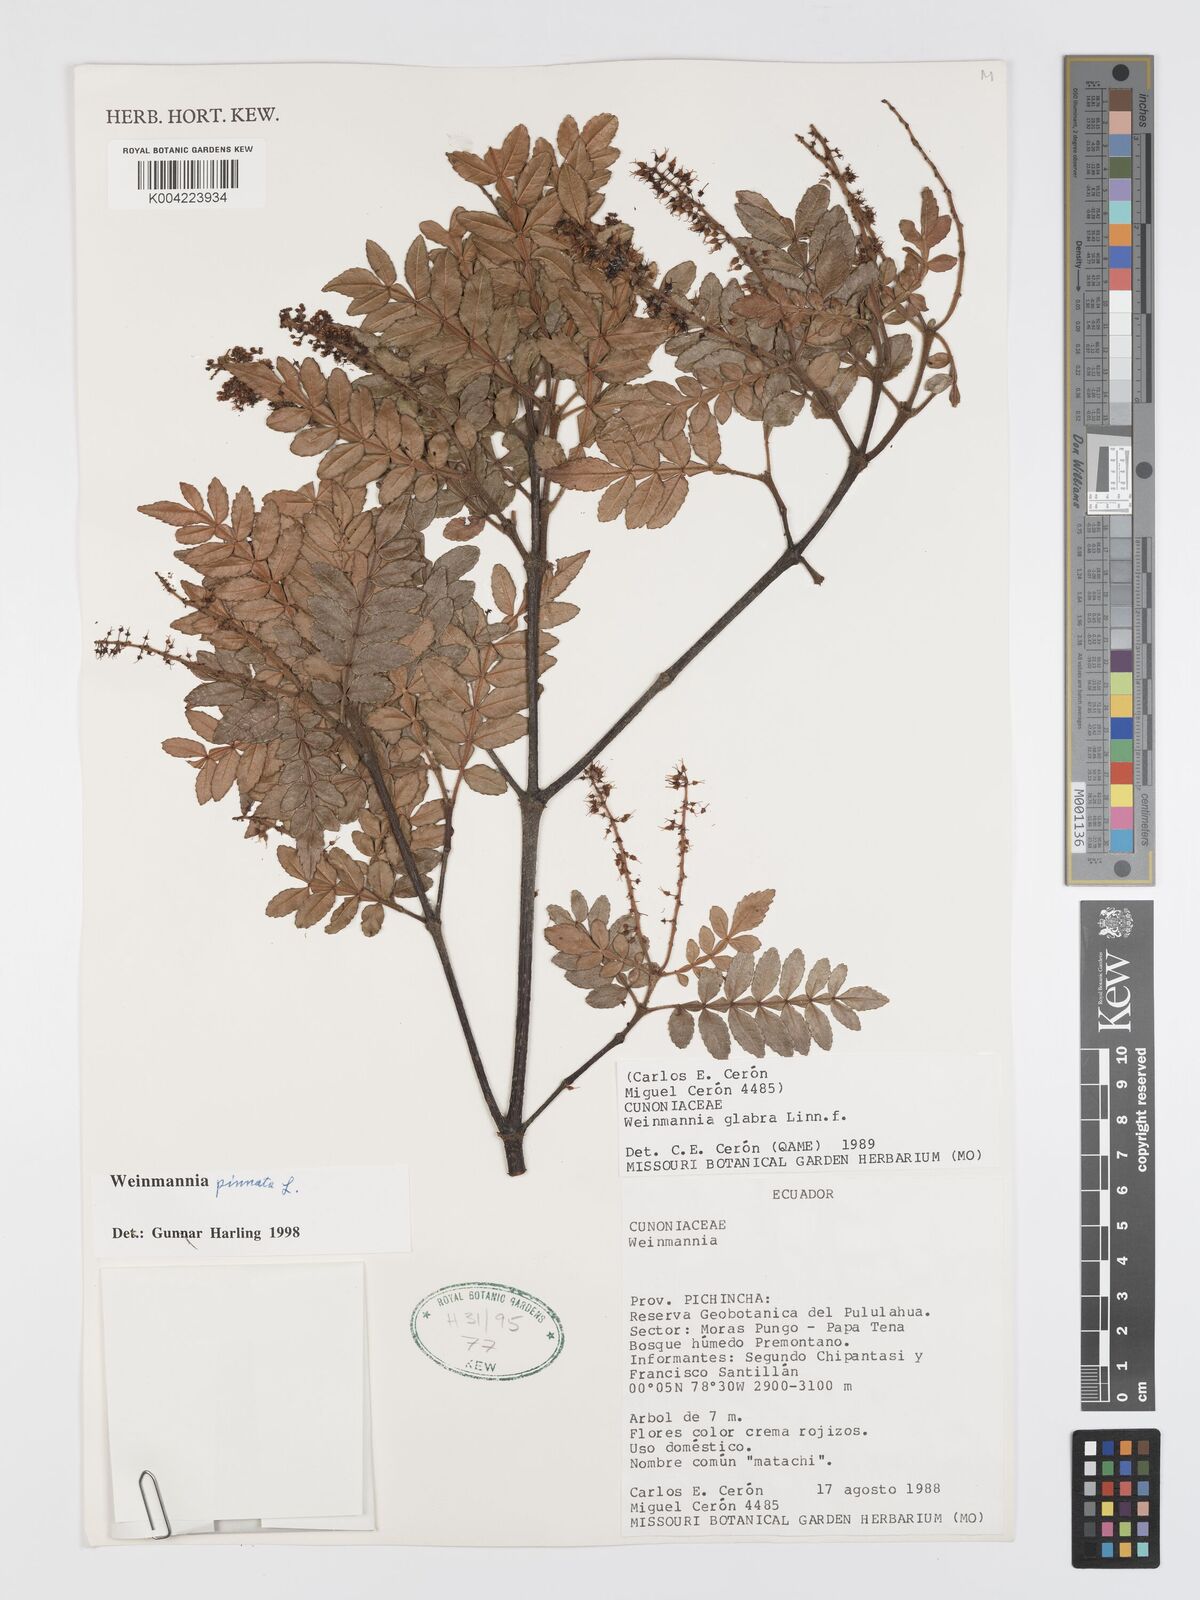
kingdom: Plantae
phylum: Tracheophyta
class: Magnoliopsida
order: Oxalidales
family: Cunoniaceae
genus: Weinmannia
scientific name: Weinmannia pinnata
